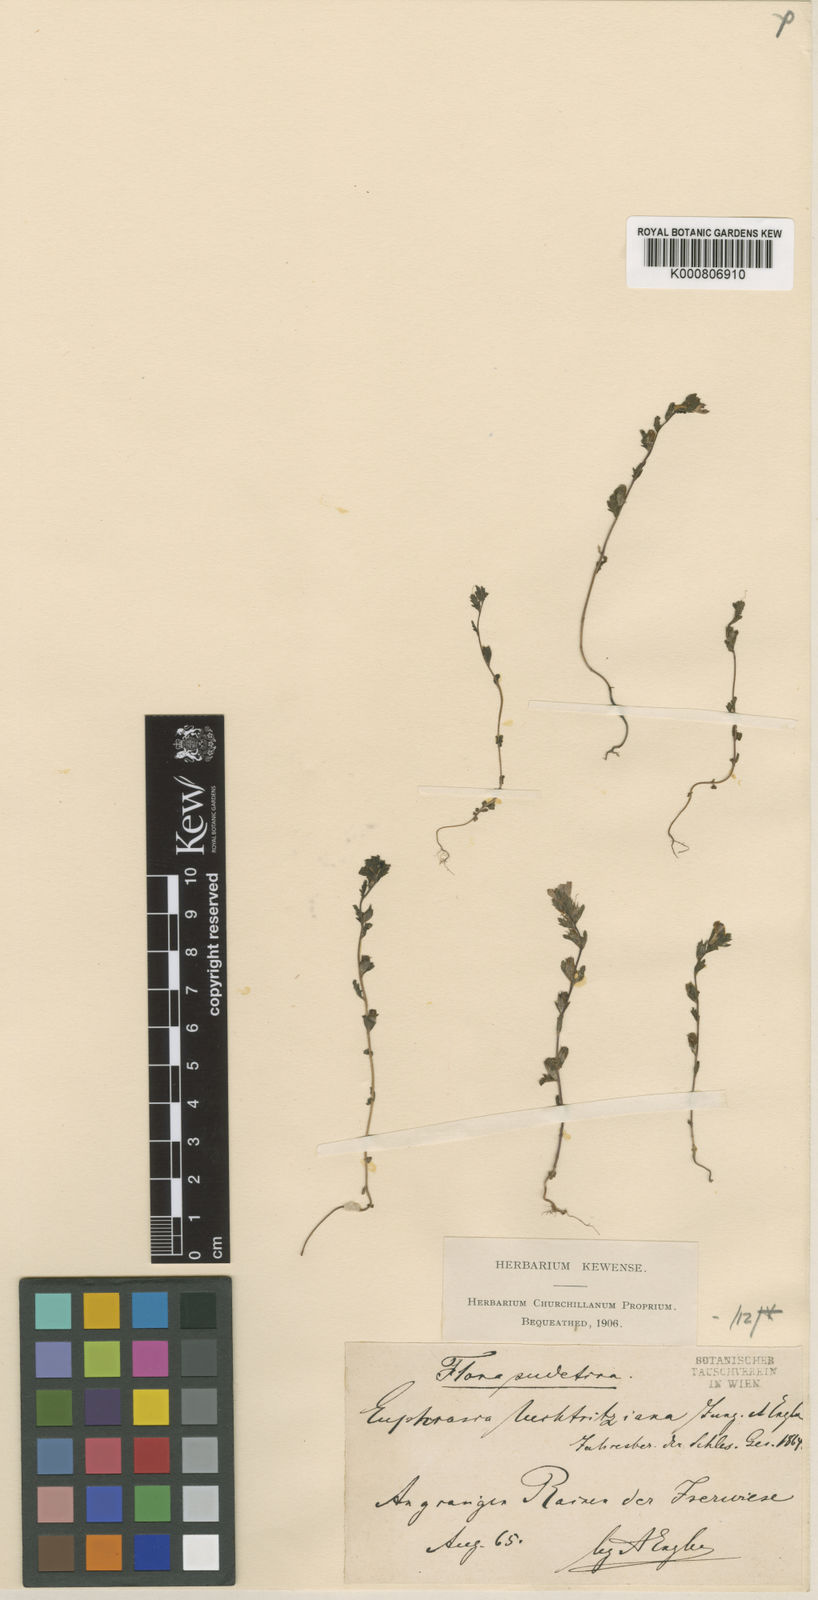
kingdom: Plantae
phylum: Tracheophyta
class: Magnoliopsida
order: Lamiales
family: Orobanchaceae
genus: Euphrasia
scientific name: Euphrasia nemorosa
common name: Common eyebright
